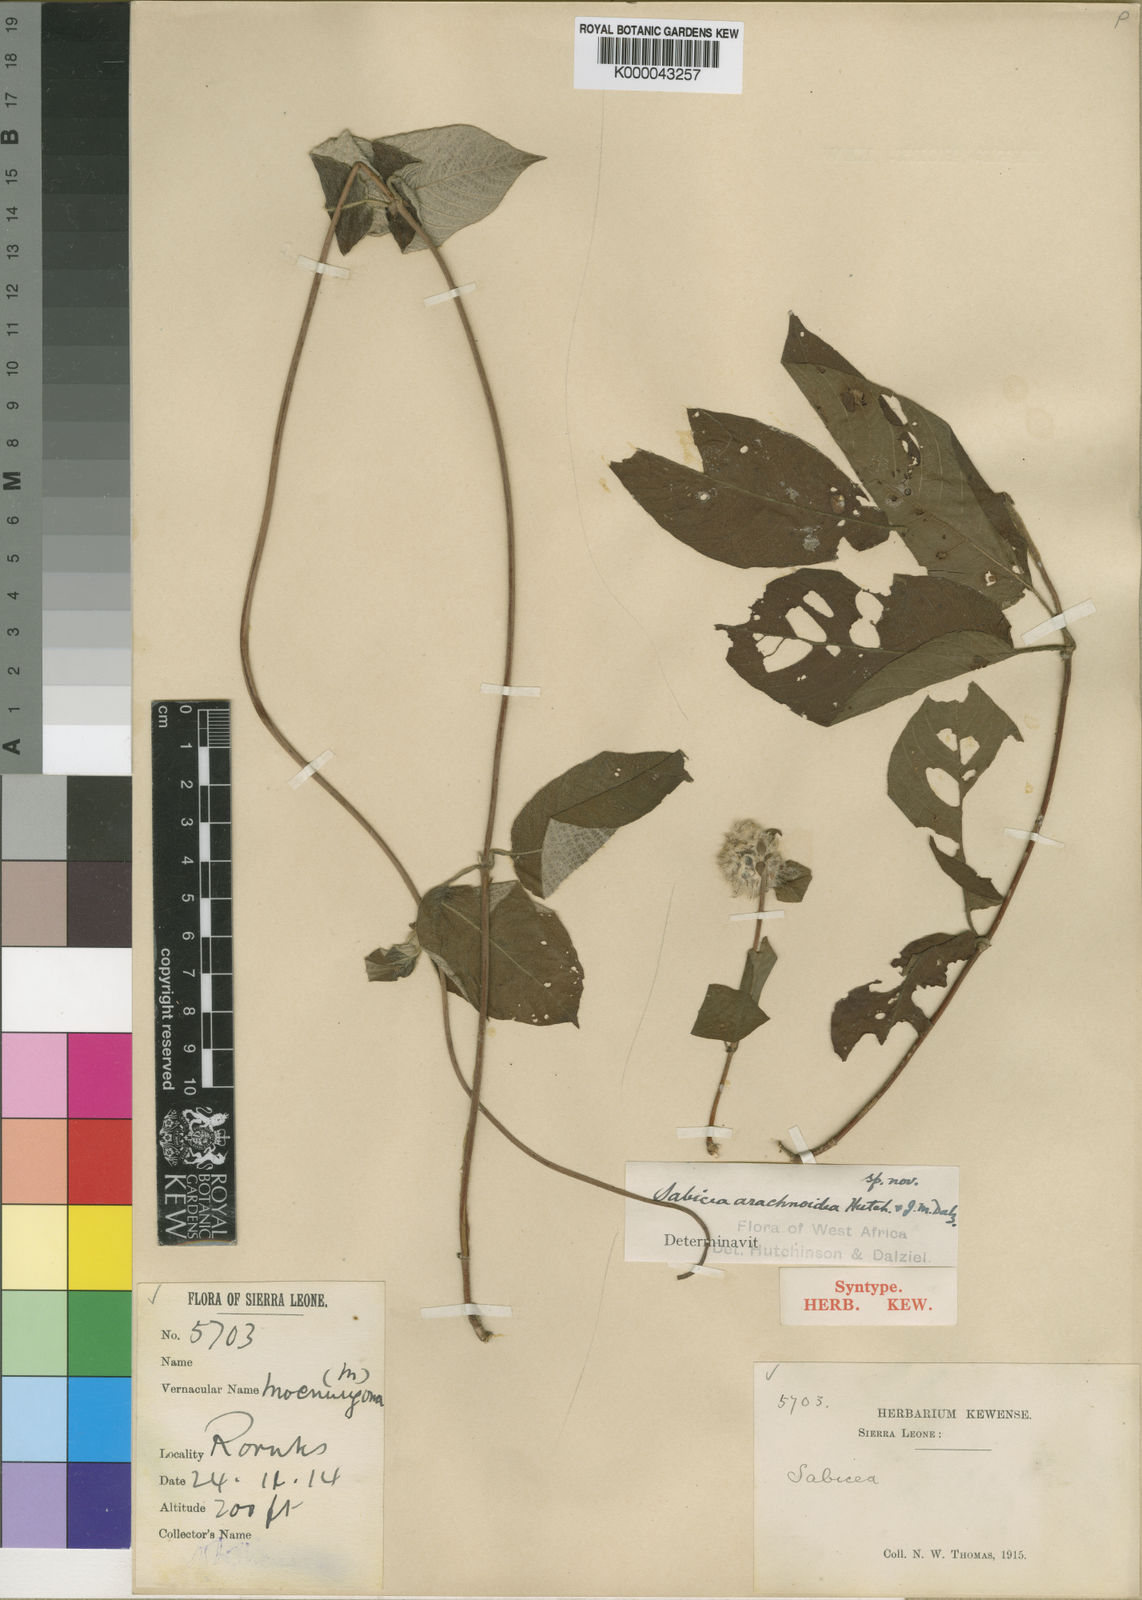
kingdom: Plantae
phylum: Tracheophyta
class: Magnoliopsida
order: Gentianales
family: Rubiaceae
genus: Sabicea
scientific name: Sabicea discolor
